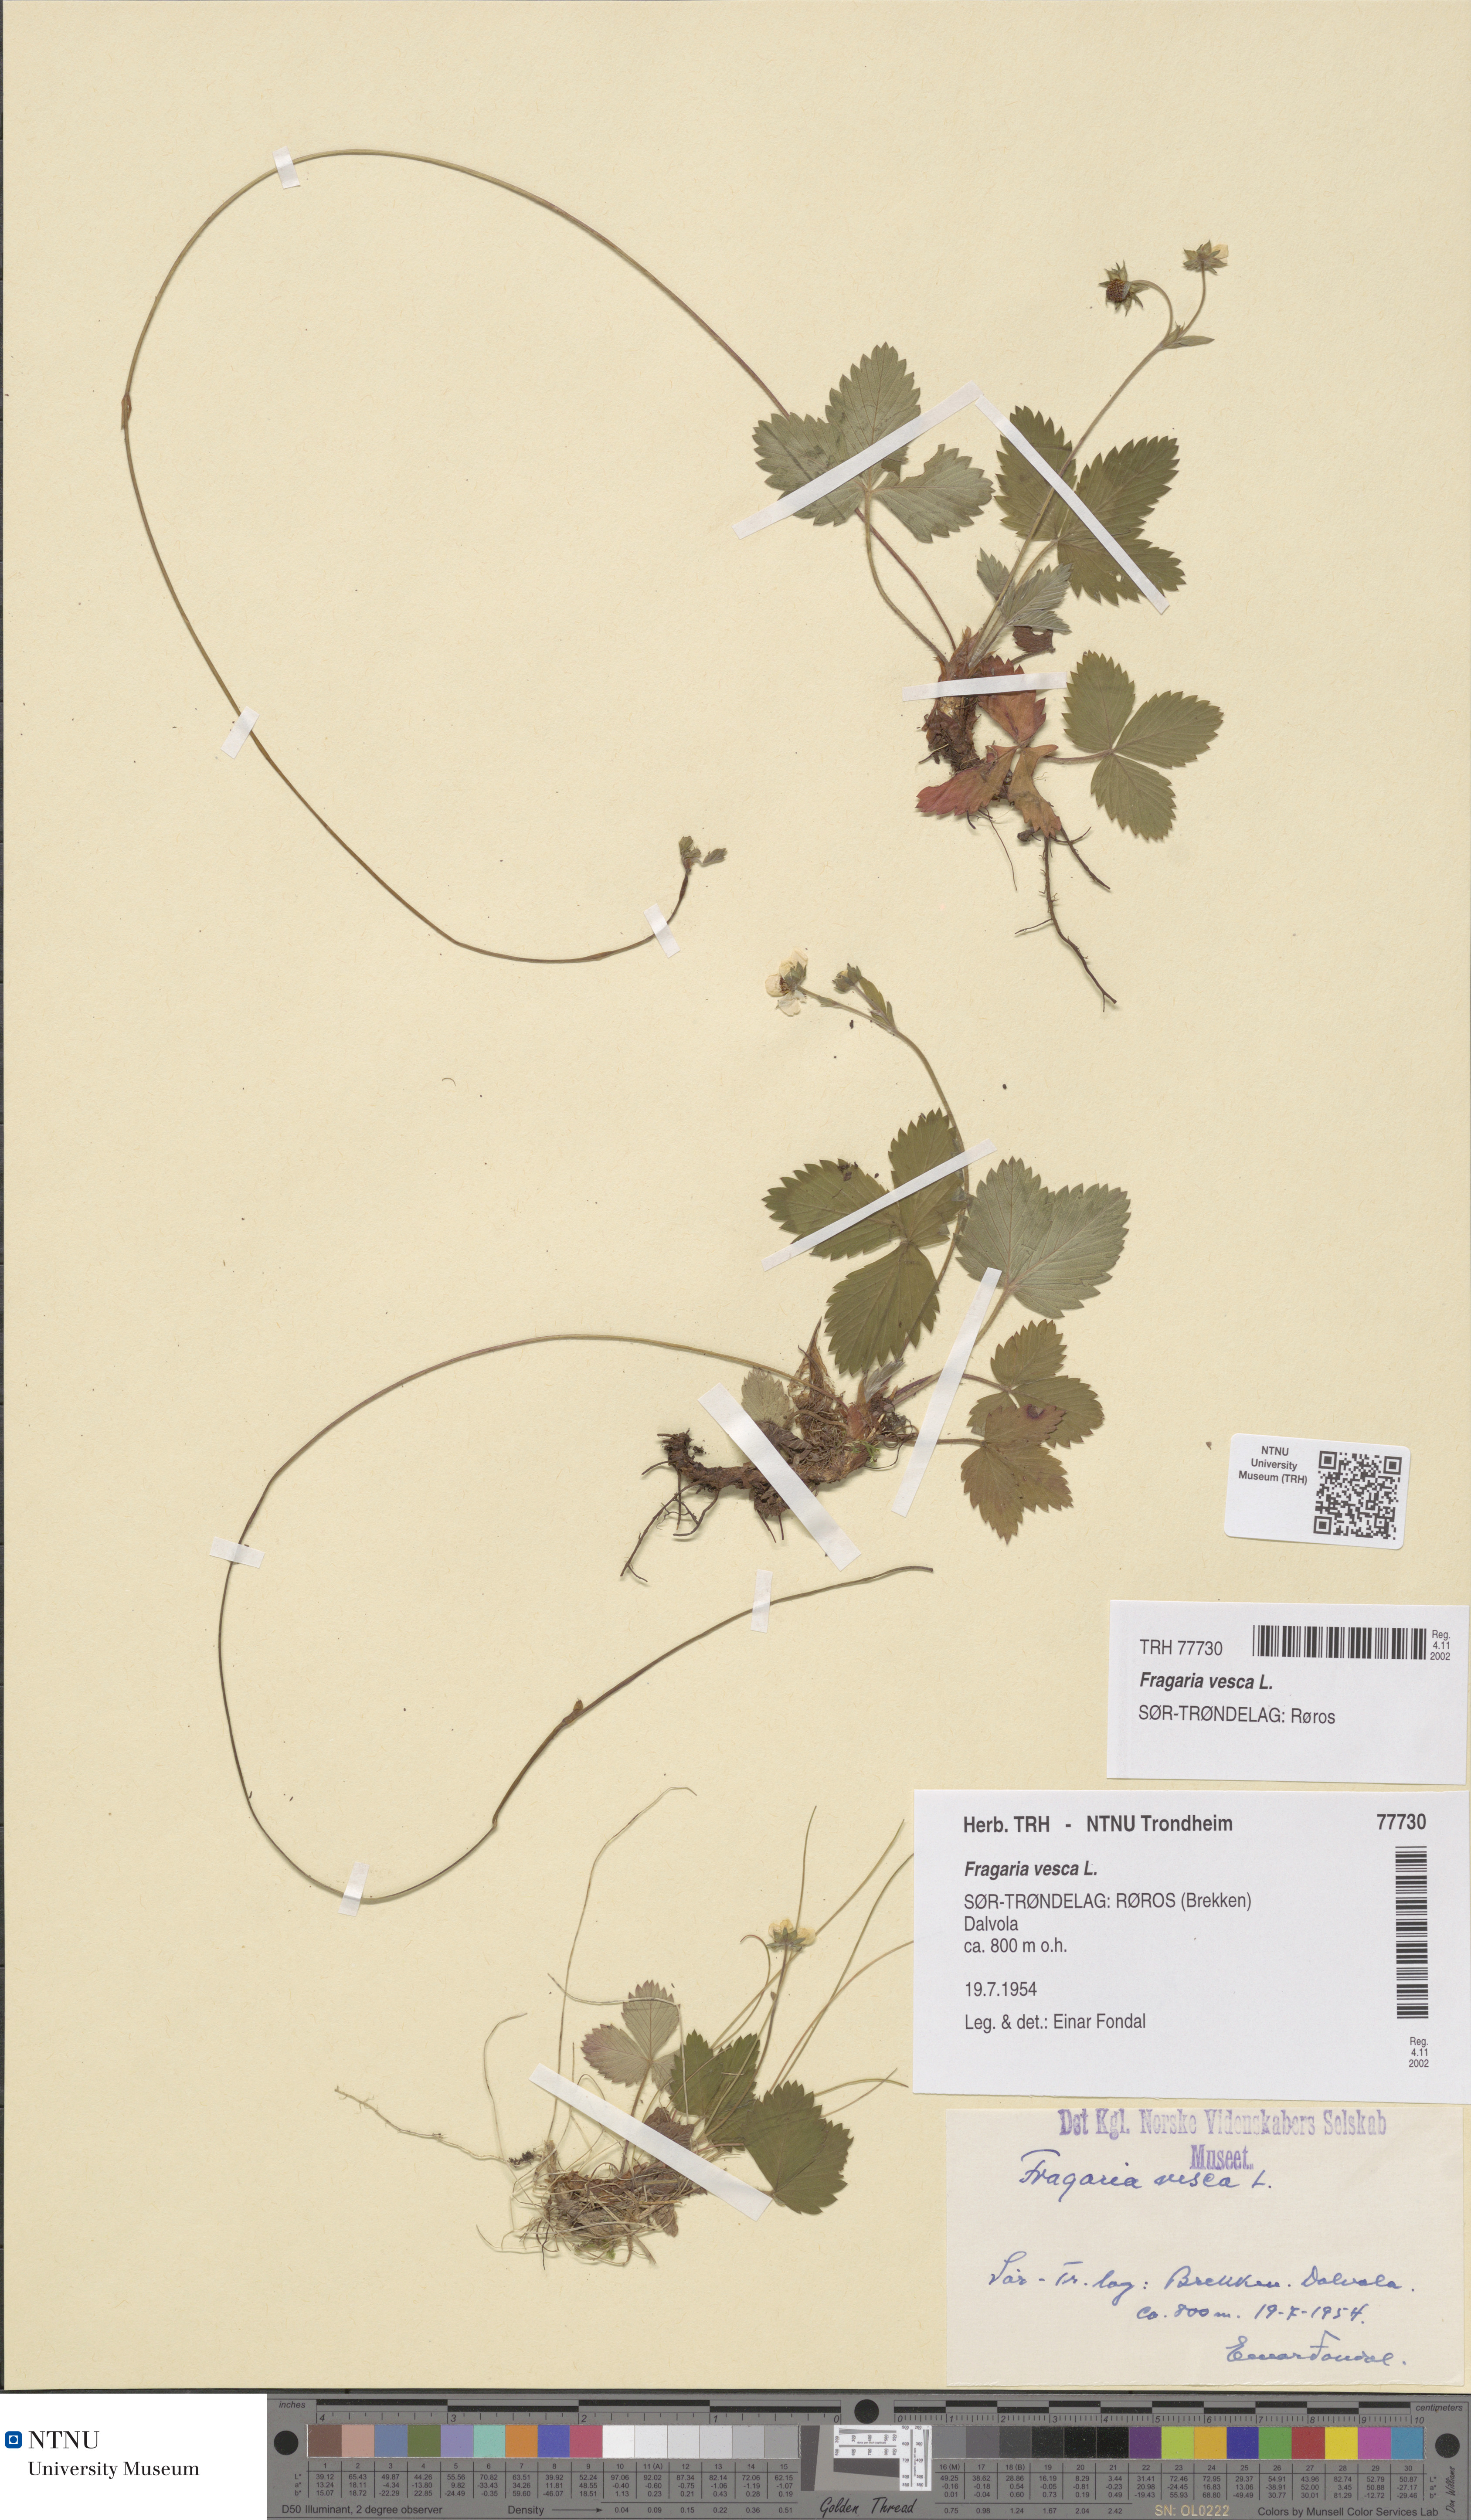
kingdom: Plantae
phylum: Tracheophyta
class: Magnoliopsida
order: Rosales
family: Rosaceae
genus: Fragaria
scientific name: Fragaria vesca
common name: Wild strawberry
